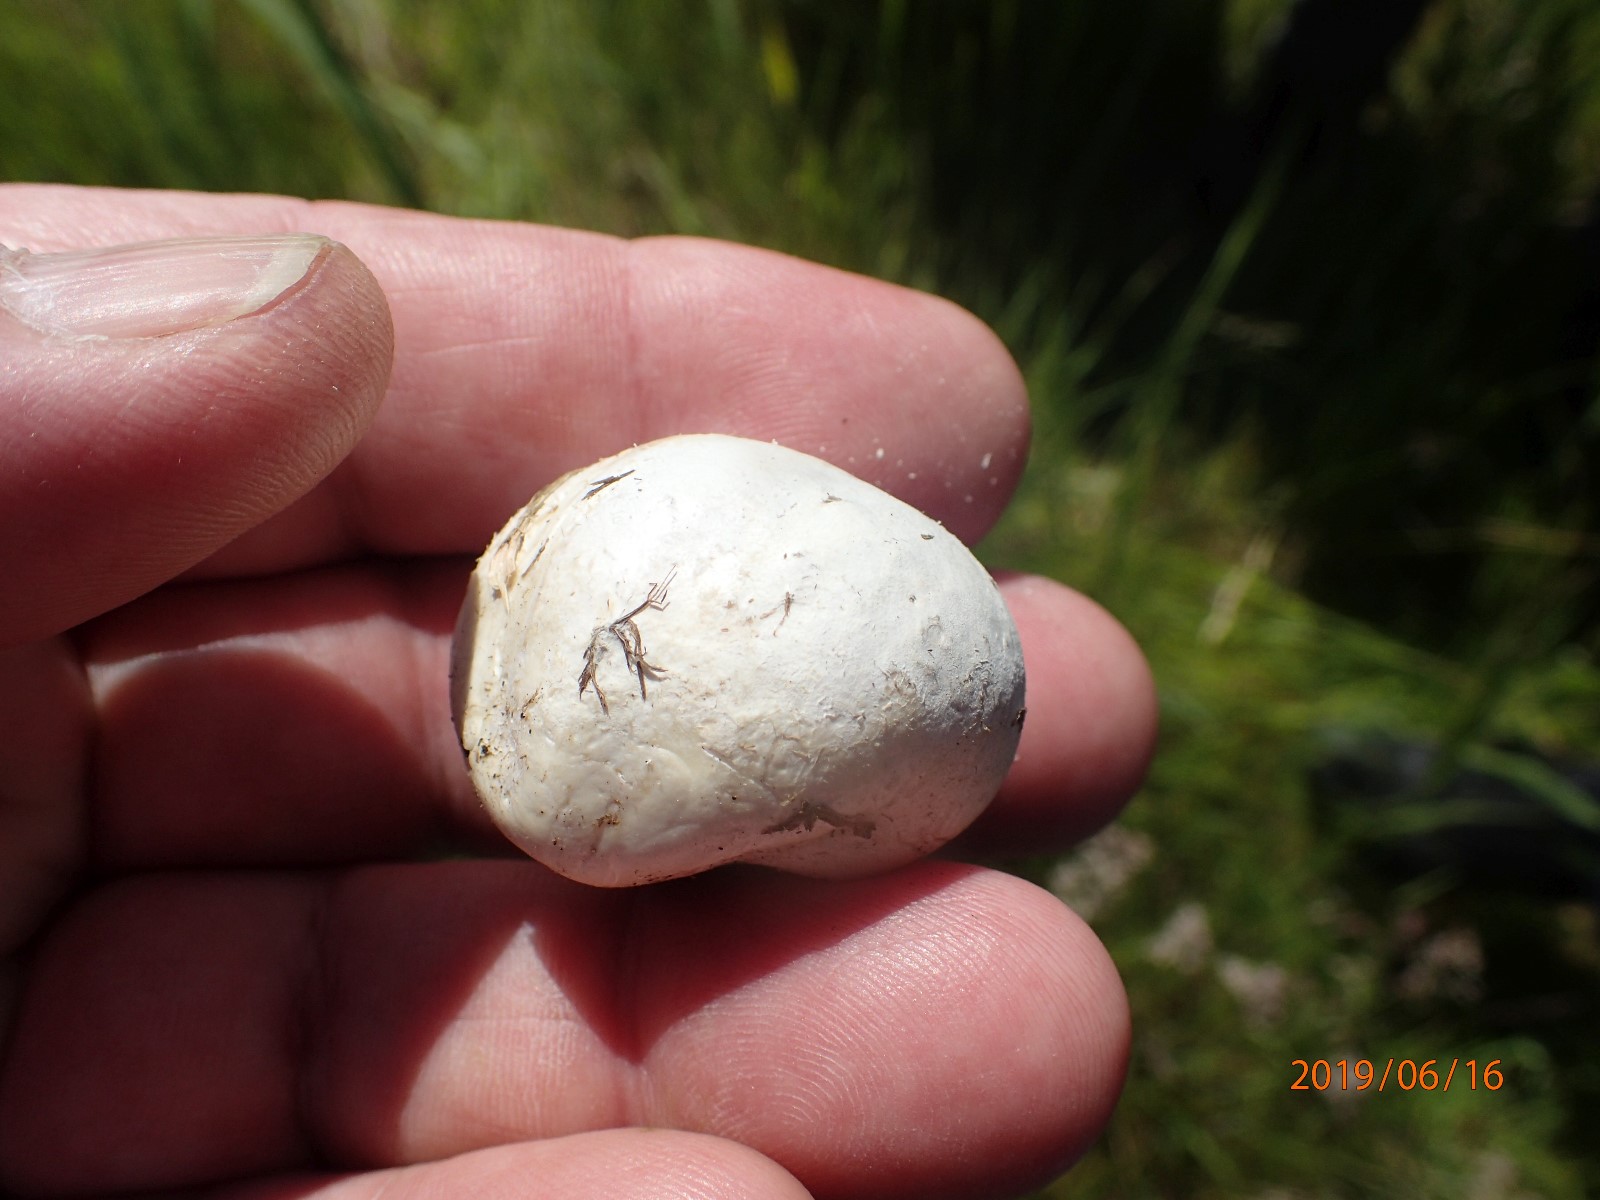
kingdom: Fungi
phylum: Basidiomycota
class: Agaricomycetes
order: Agaricales
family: Lycoperdaceae
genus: Bovista
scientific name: Bovista
